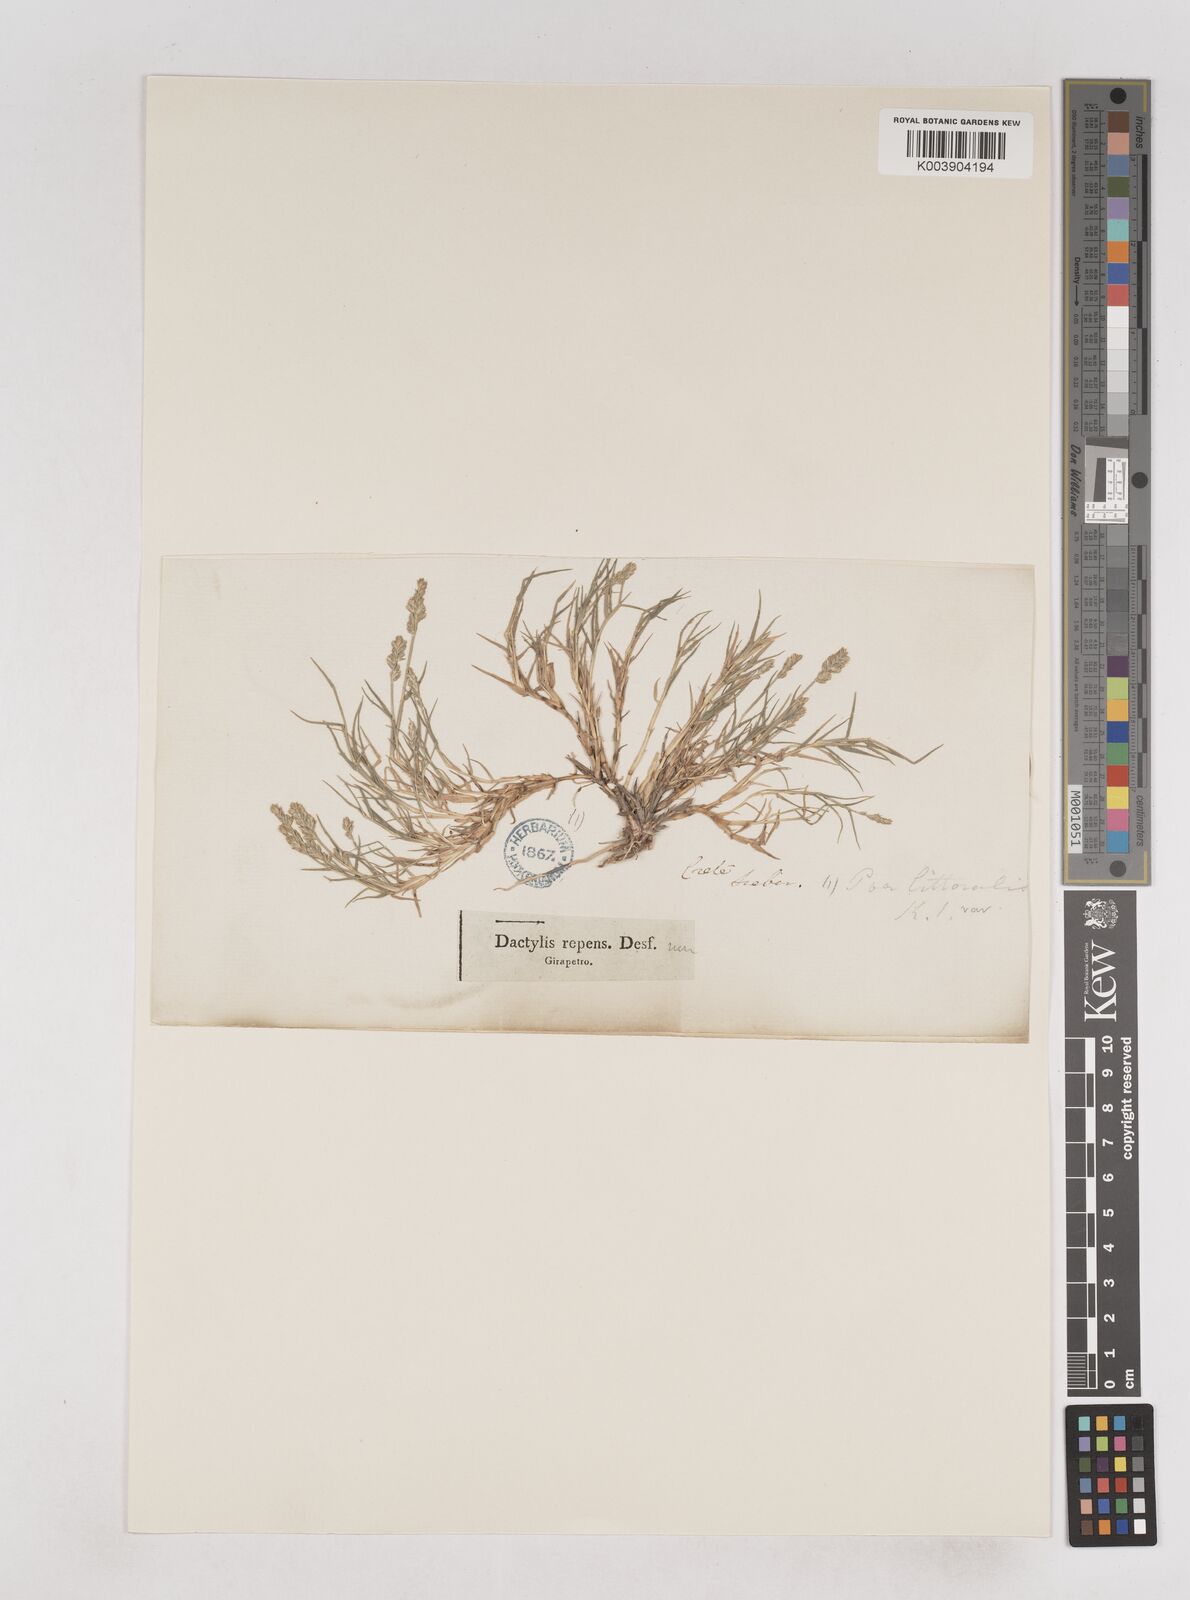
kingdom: Plantae
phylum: Tracheophyta
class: Liliopsida
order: Poales
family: Poaceae
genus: Aeluropus
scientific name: Aeluropus littoralis
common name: Indian walnut
